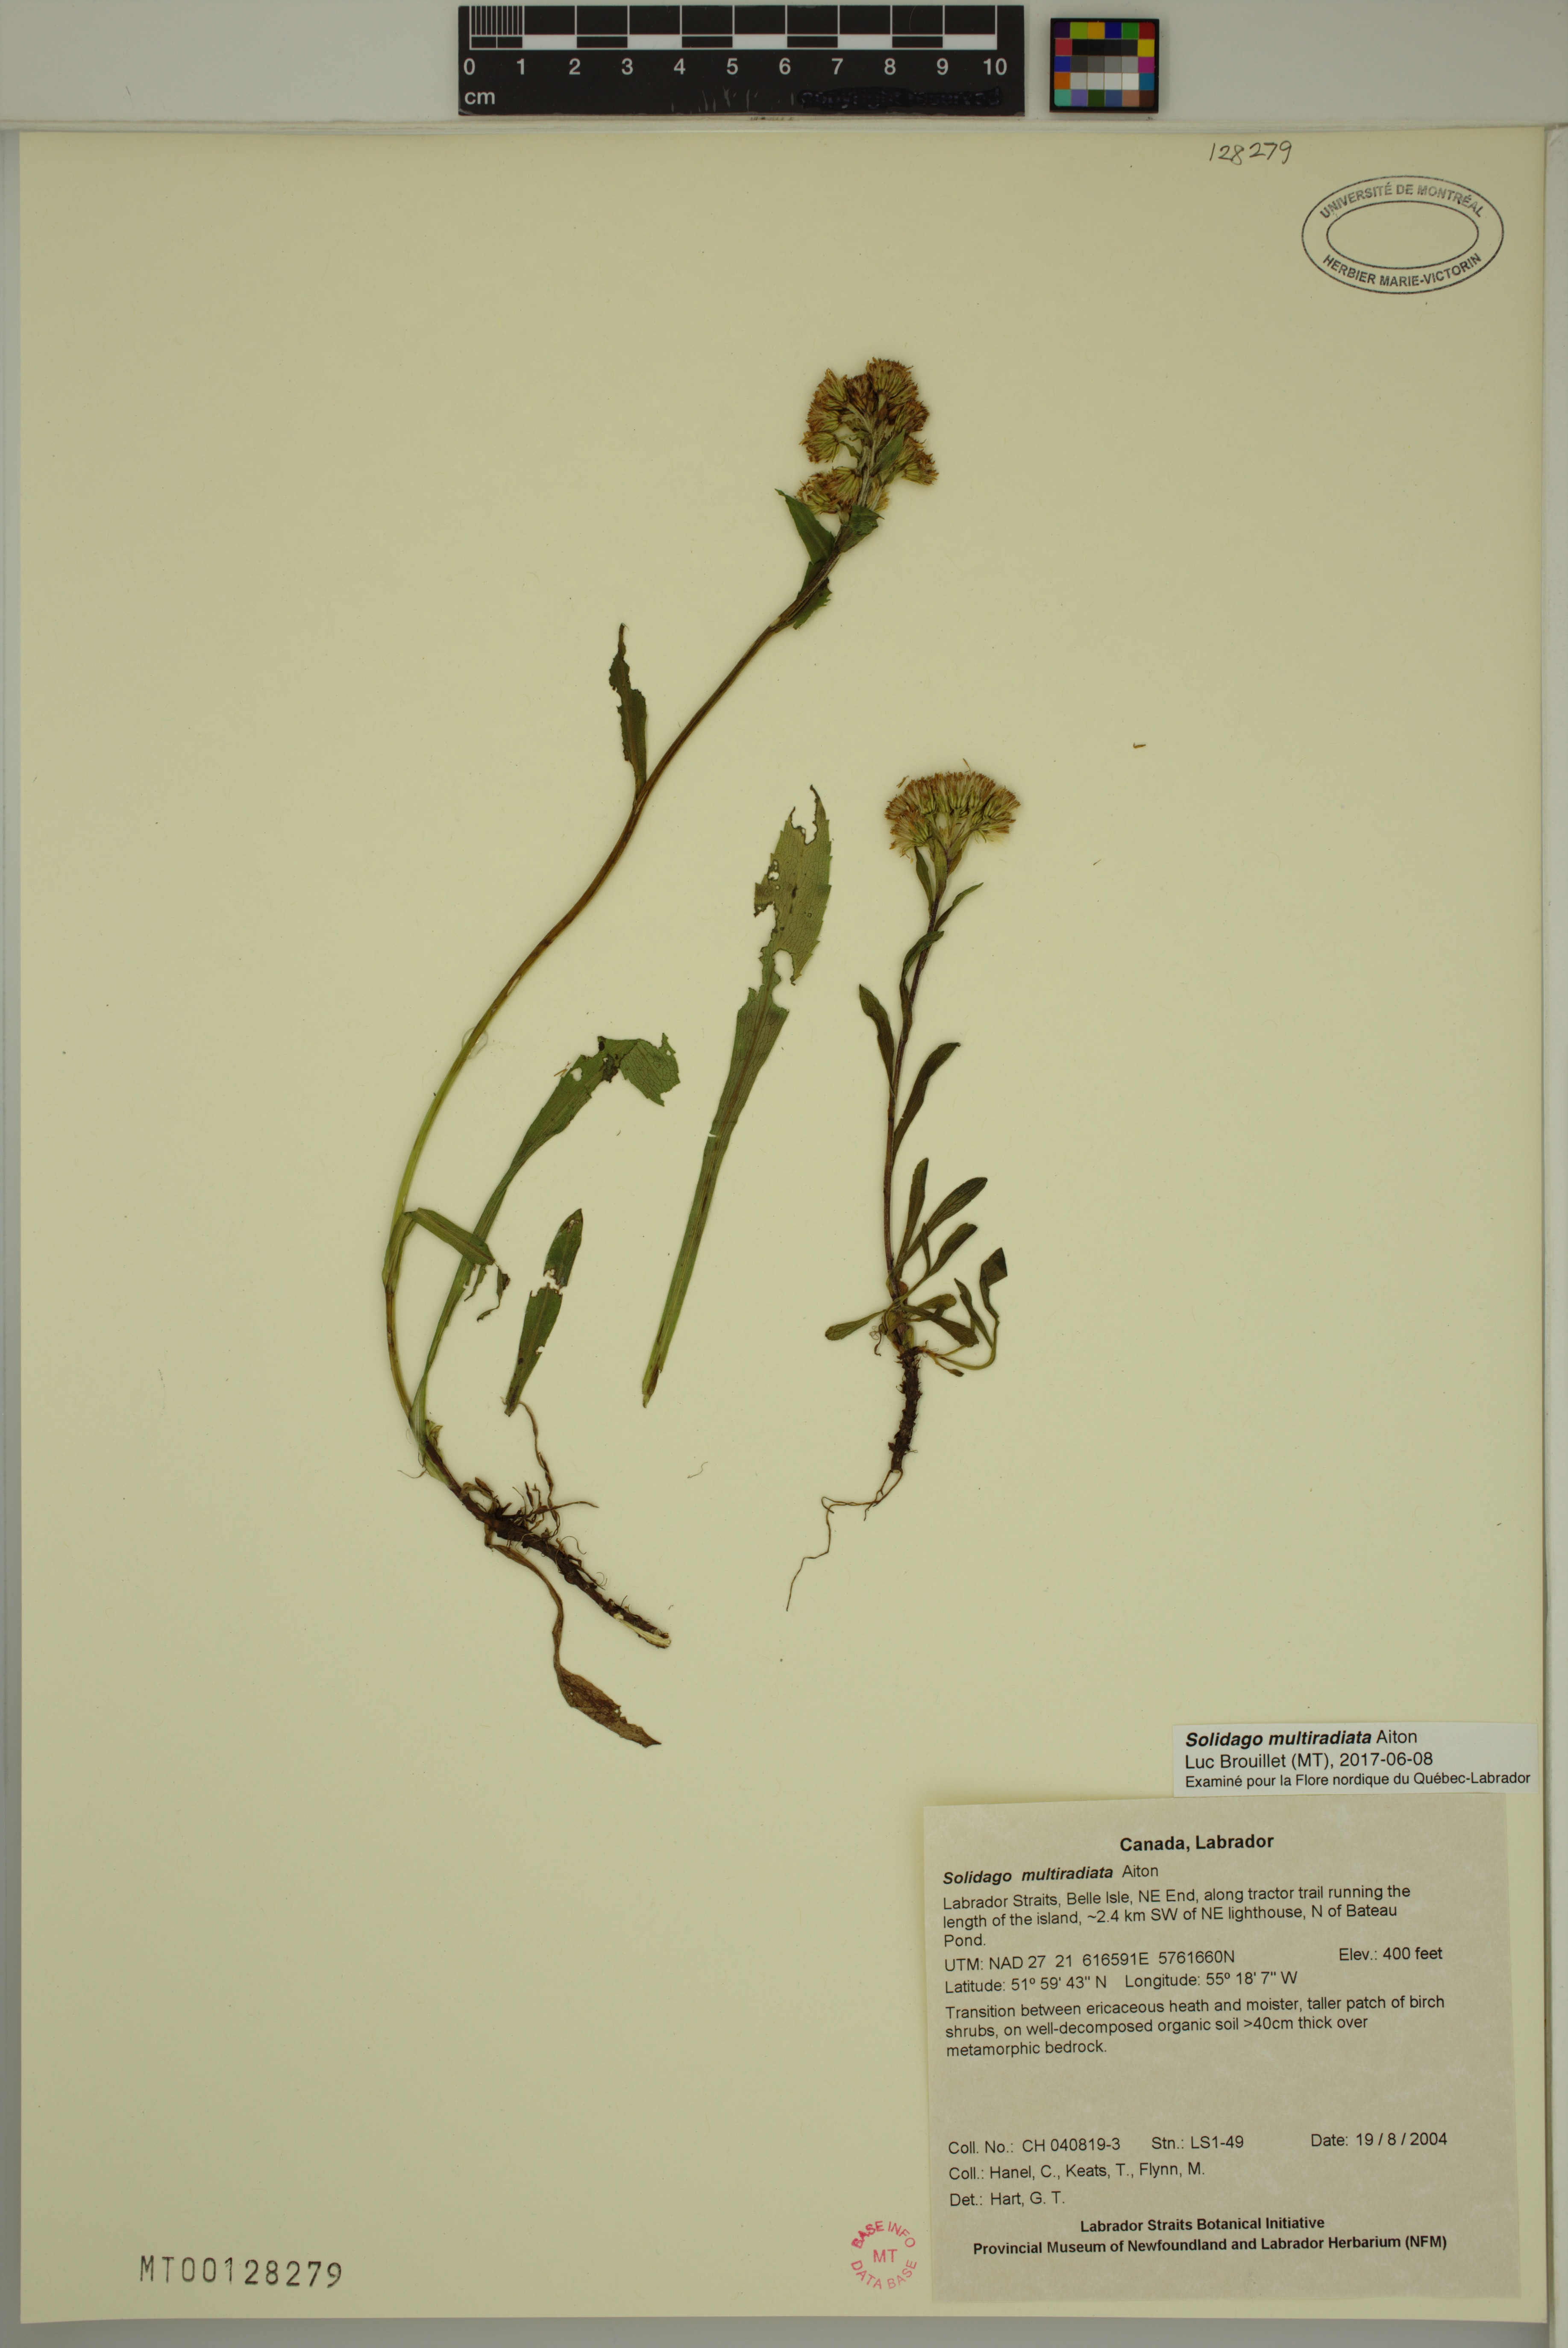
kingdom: Plantae
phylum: Tracheophyta
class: Magnoliopsida
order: Asterales
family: Asteraceae
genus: Solidago
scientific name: Solidago multiradiata
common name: Northern goldenrod
